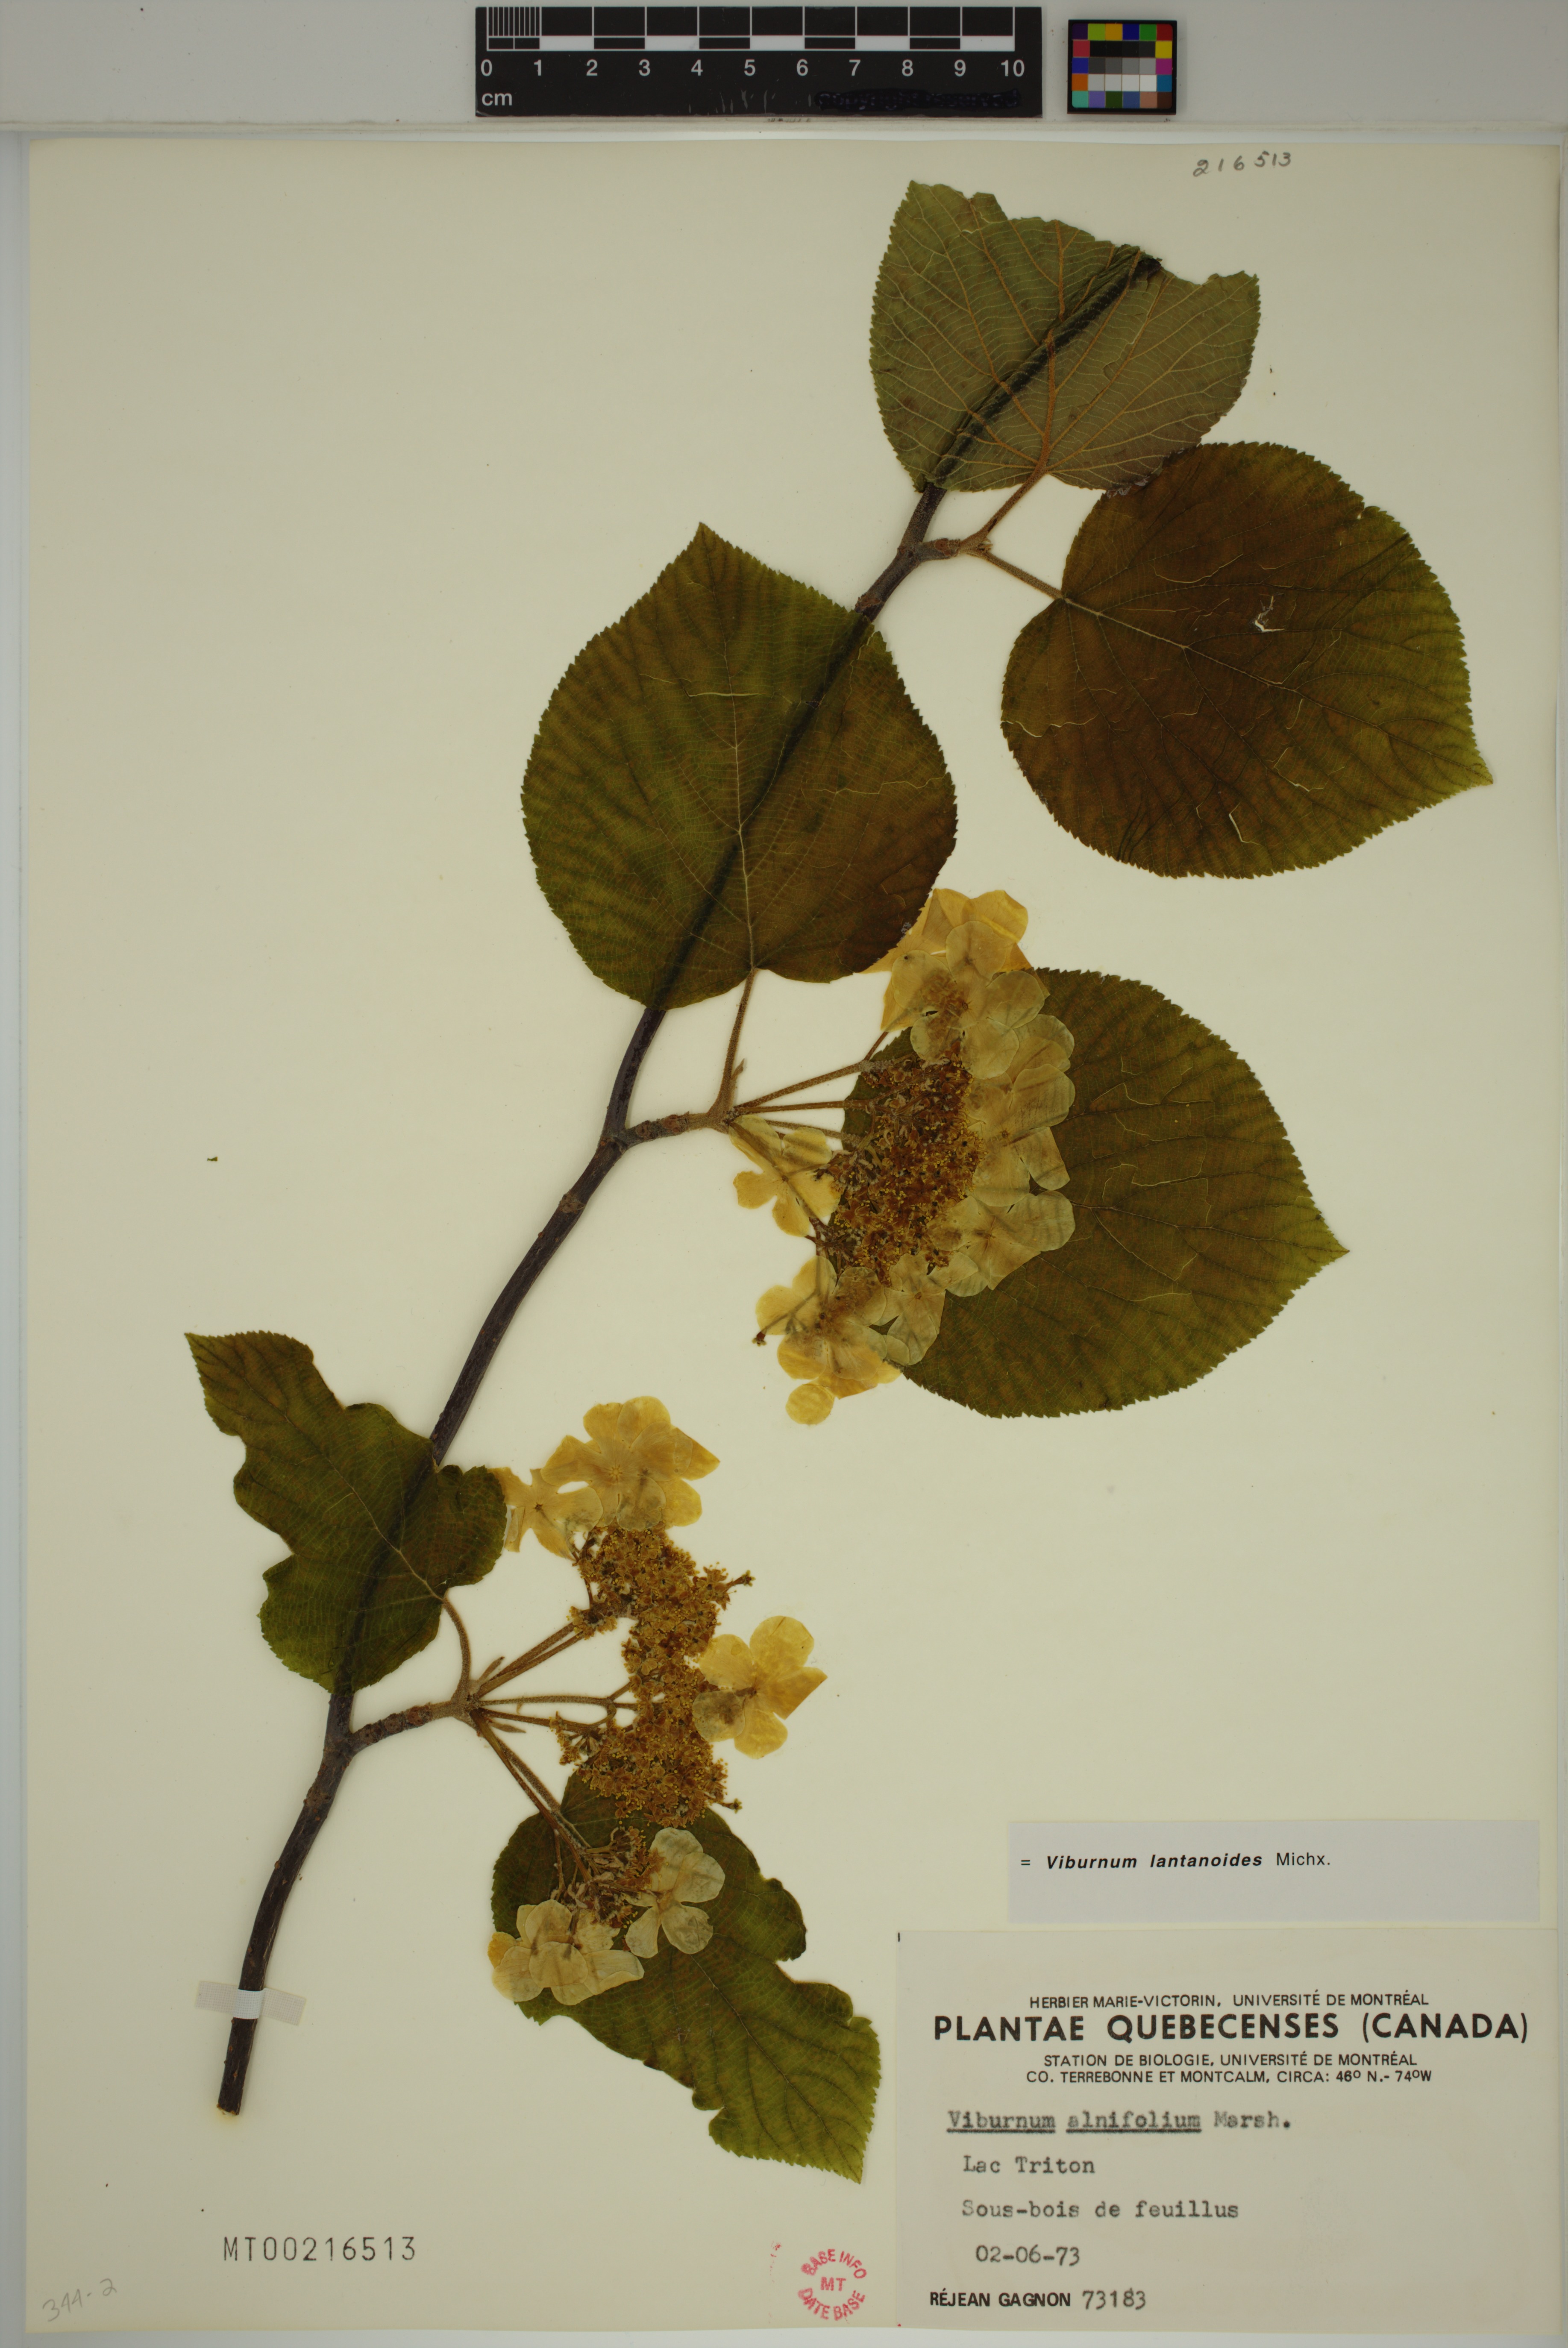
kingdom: Plantae
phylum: Tracheophyta
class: Magnoliopsida
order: Dipsacales
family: Viburnaceae
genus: Viburnum
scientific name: Viburnum lantanoides
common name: Hobblebush
